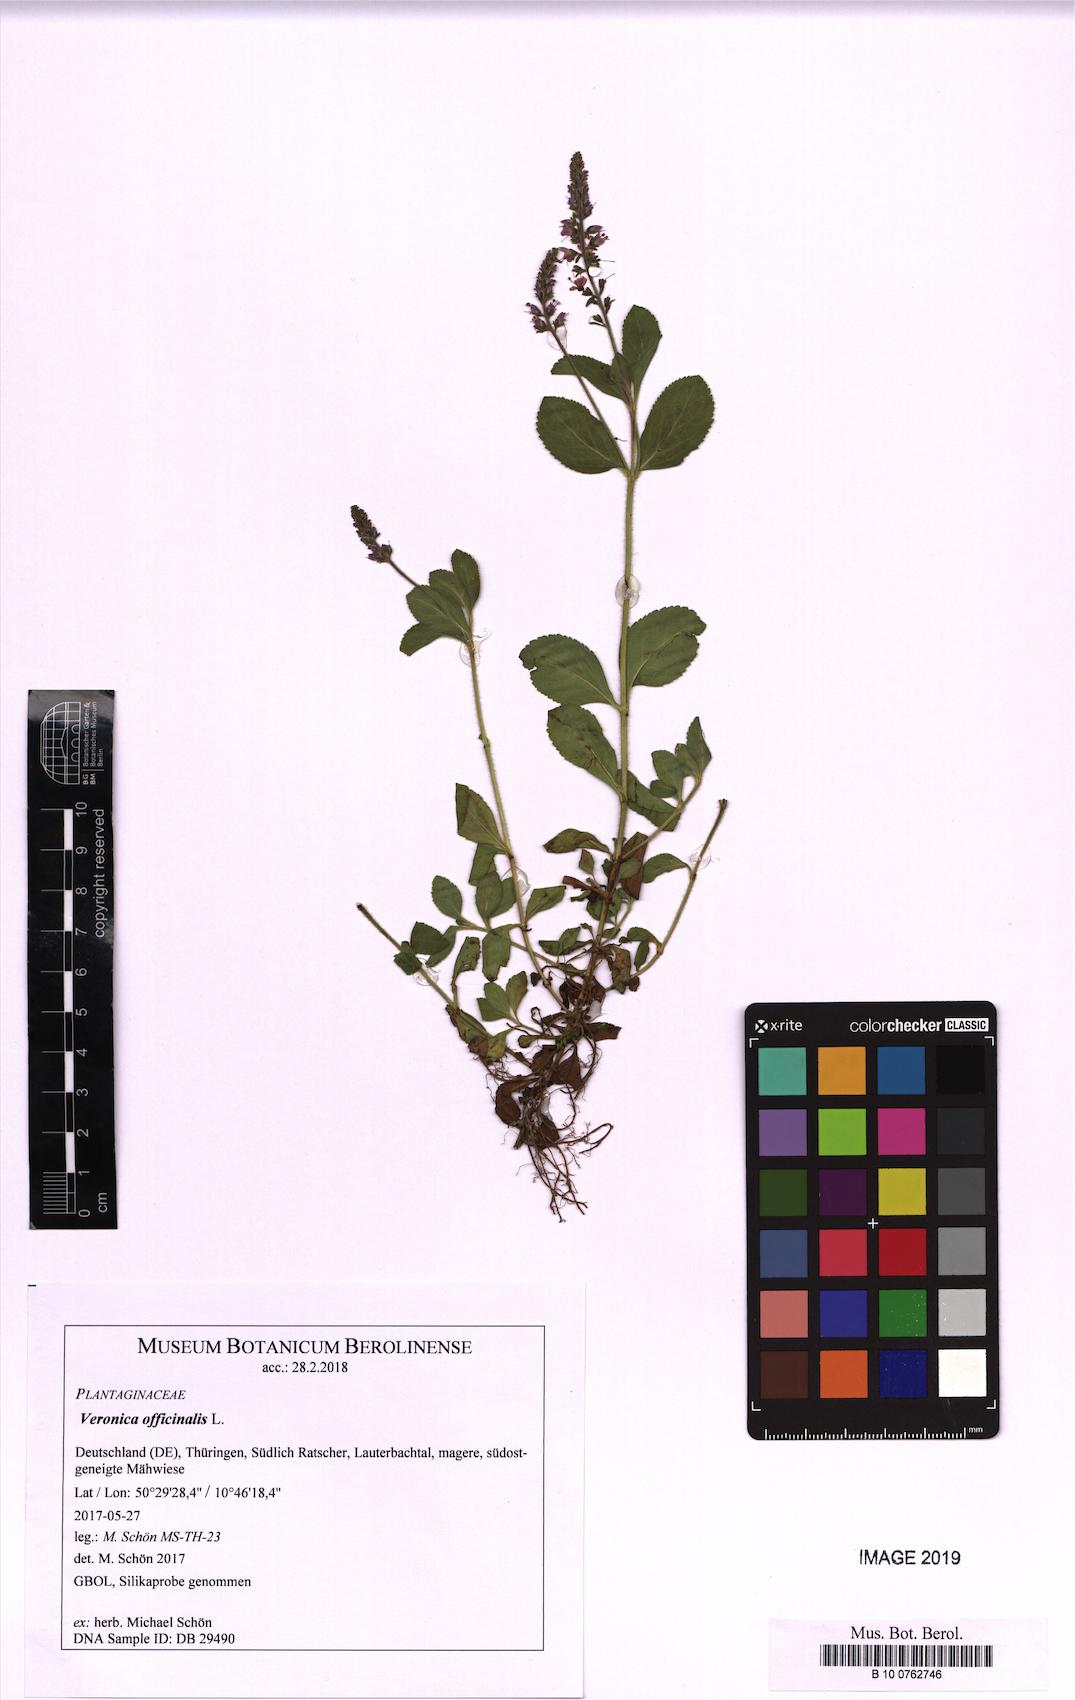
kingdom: Plantae
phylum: Tracheophyta
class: Magnoliopsida
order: Lamiales
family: Plantaginaceae
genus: Veronica
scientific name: Veronica officinalis
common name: Common speedwell
